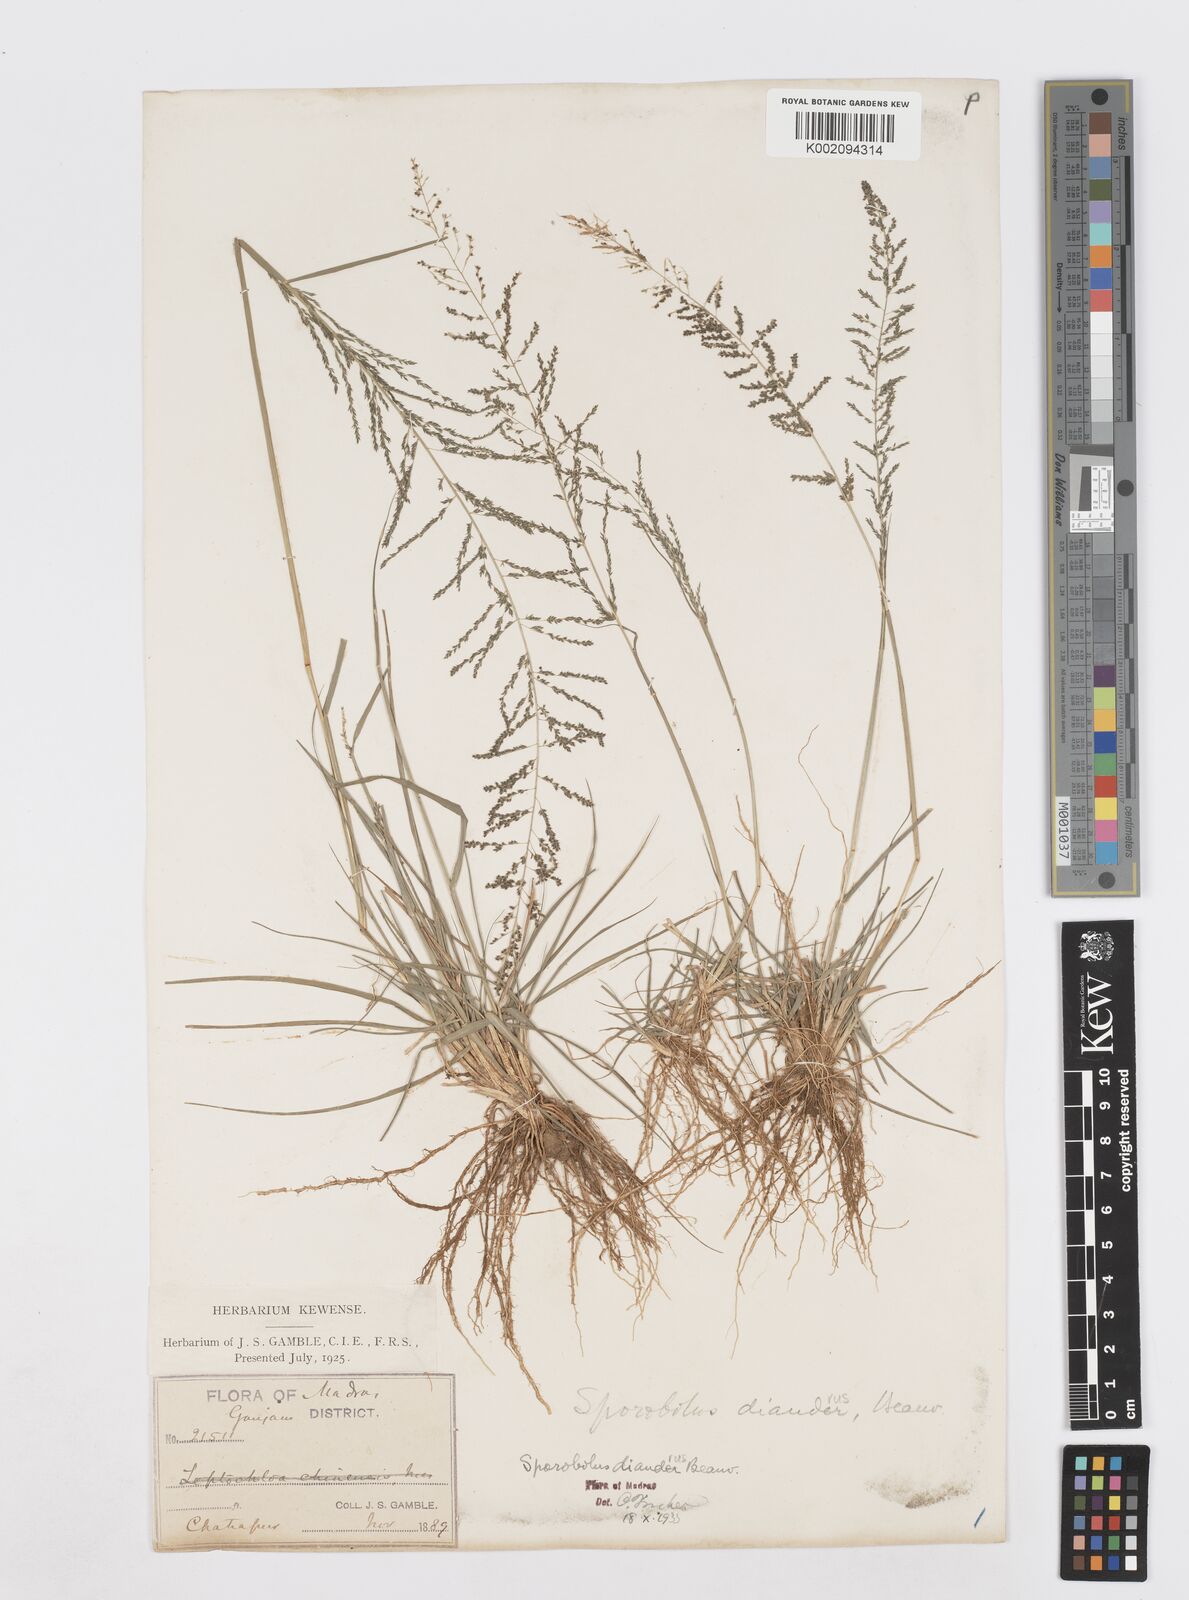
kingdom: Plantae
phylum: Tracheophyta
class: Liliopsida
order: Poales
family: Poaceae
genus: Sporobolus
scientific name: Sporobolus diandrus
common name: Tussock dropseed
